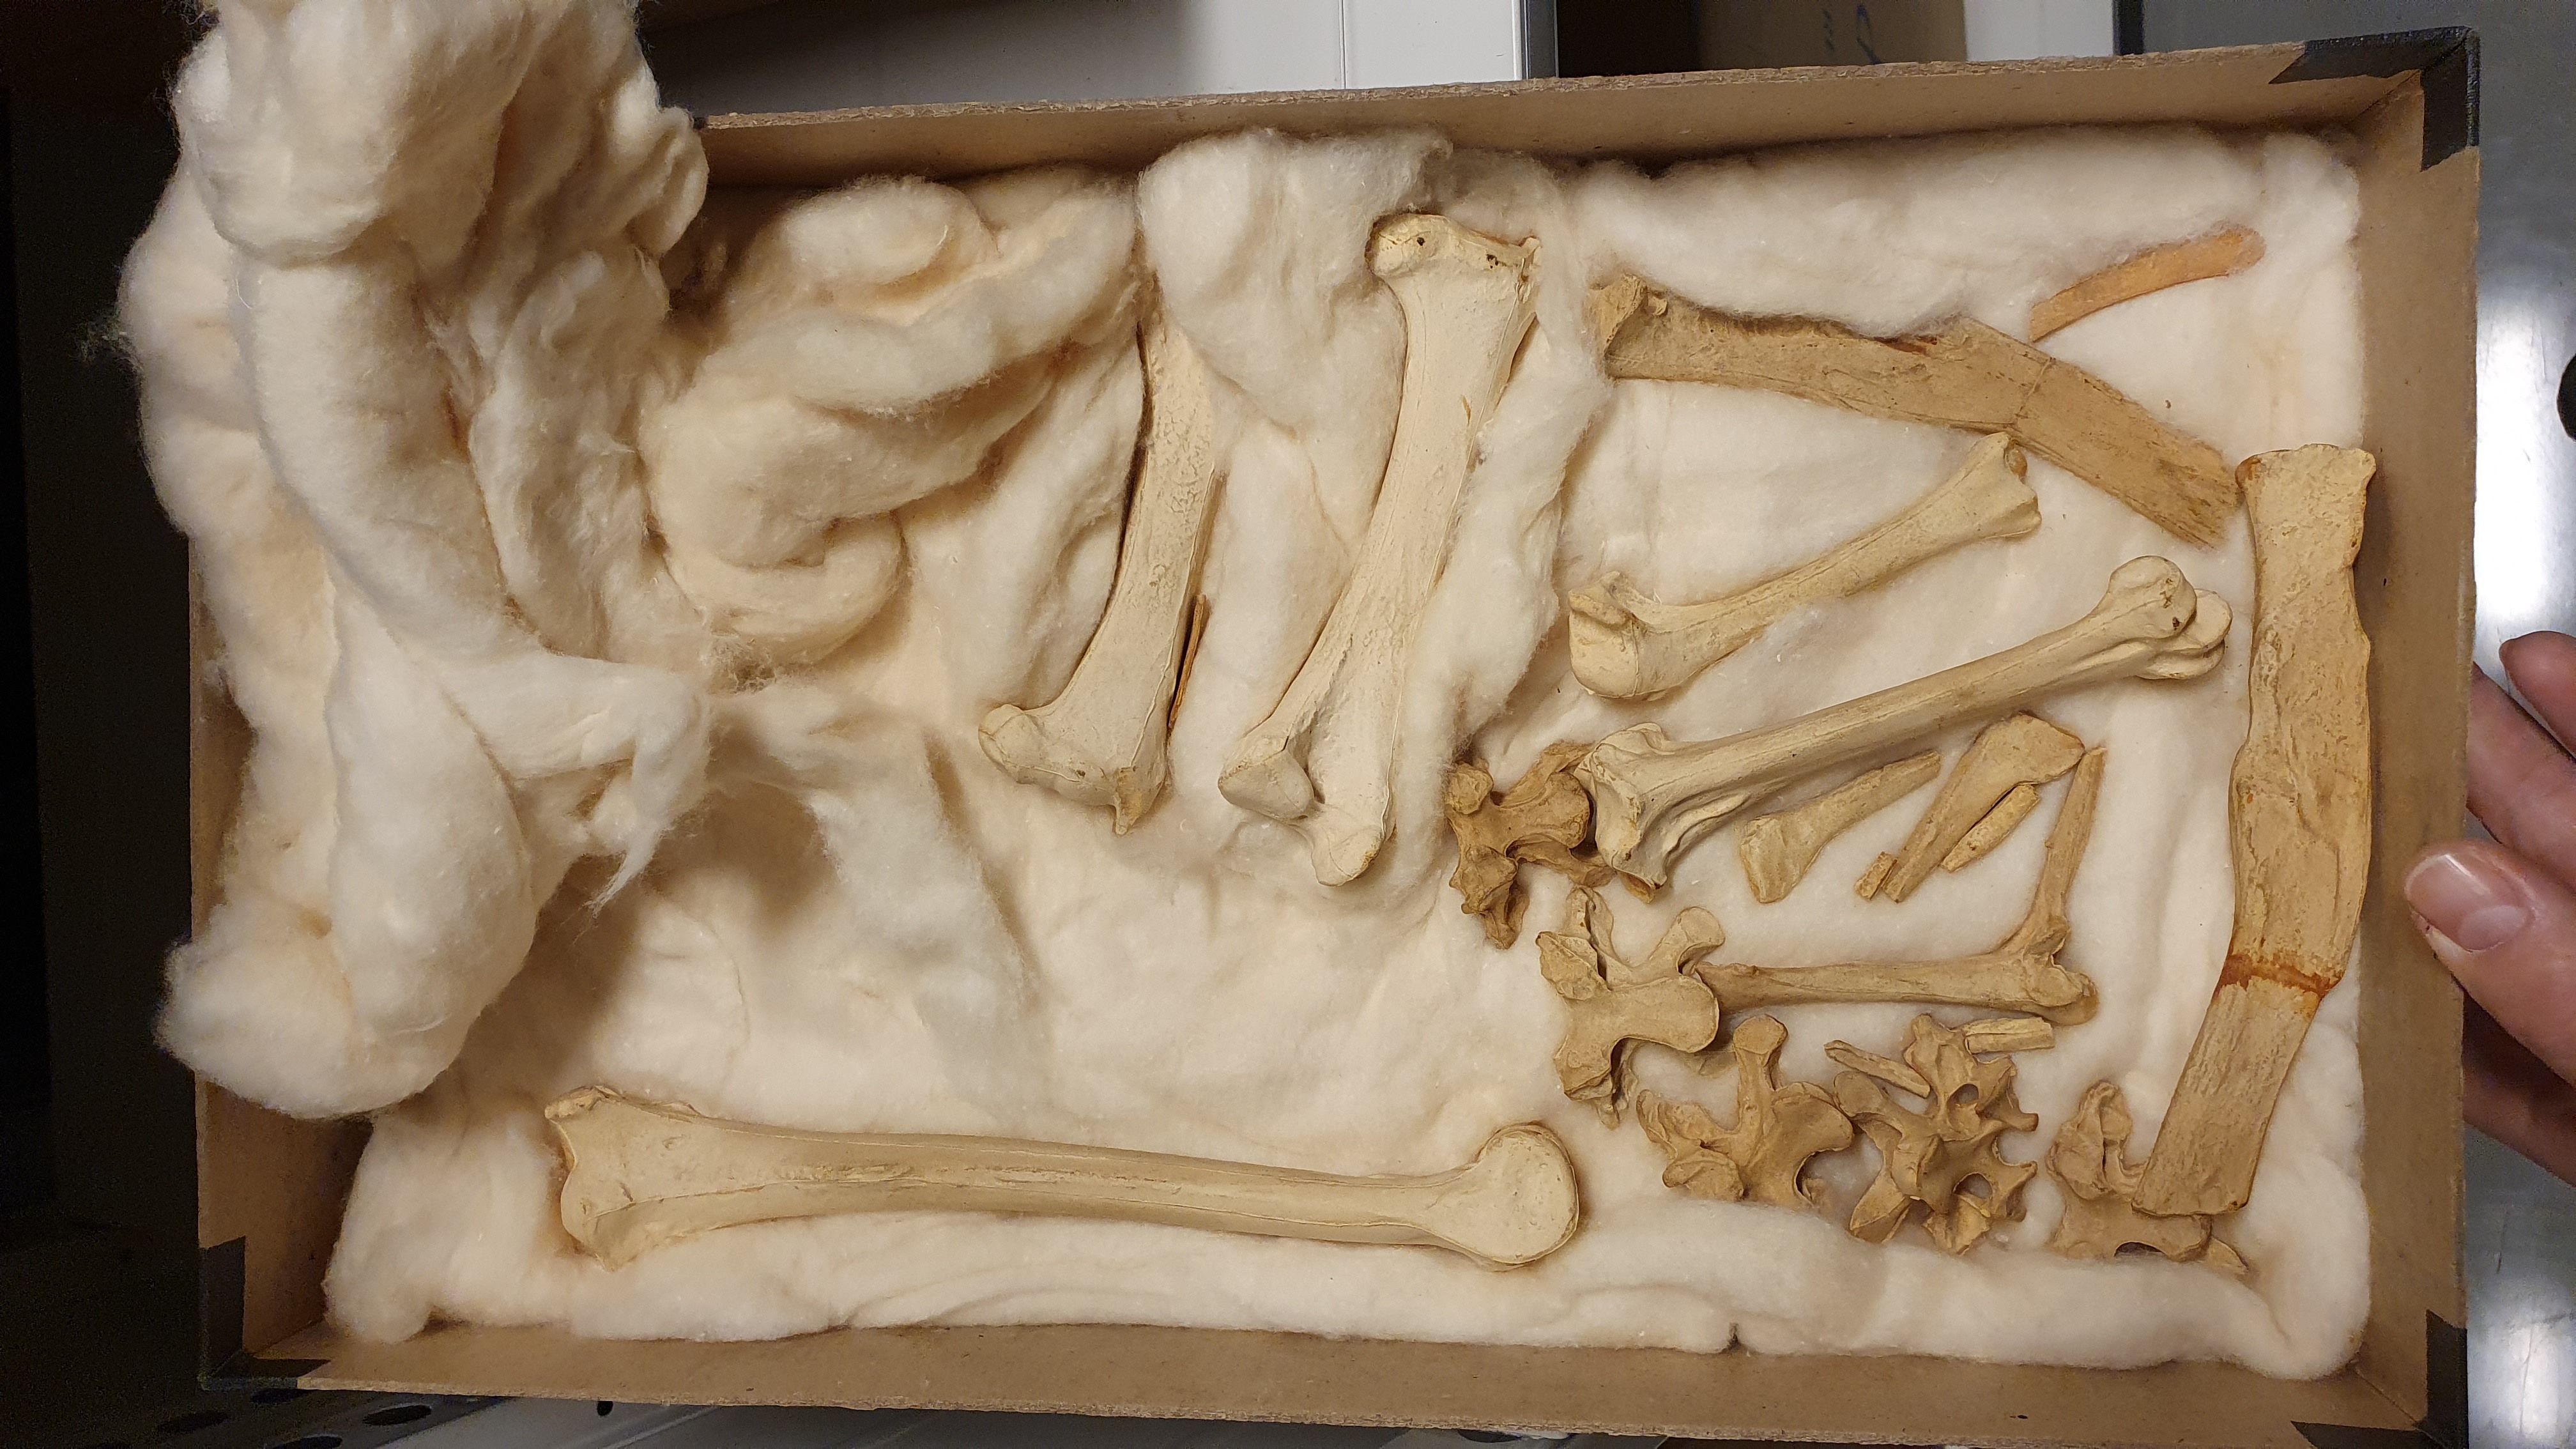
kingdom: Animalia
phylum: Chordata
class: Aves
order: Columbiformes
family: Columbidae
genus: Raphus
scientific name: Raphus cucullatus
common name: Dodo
